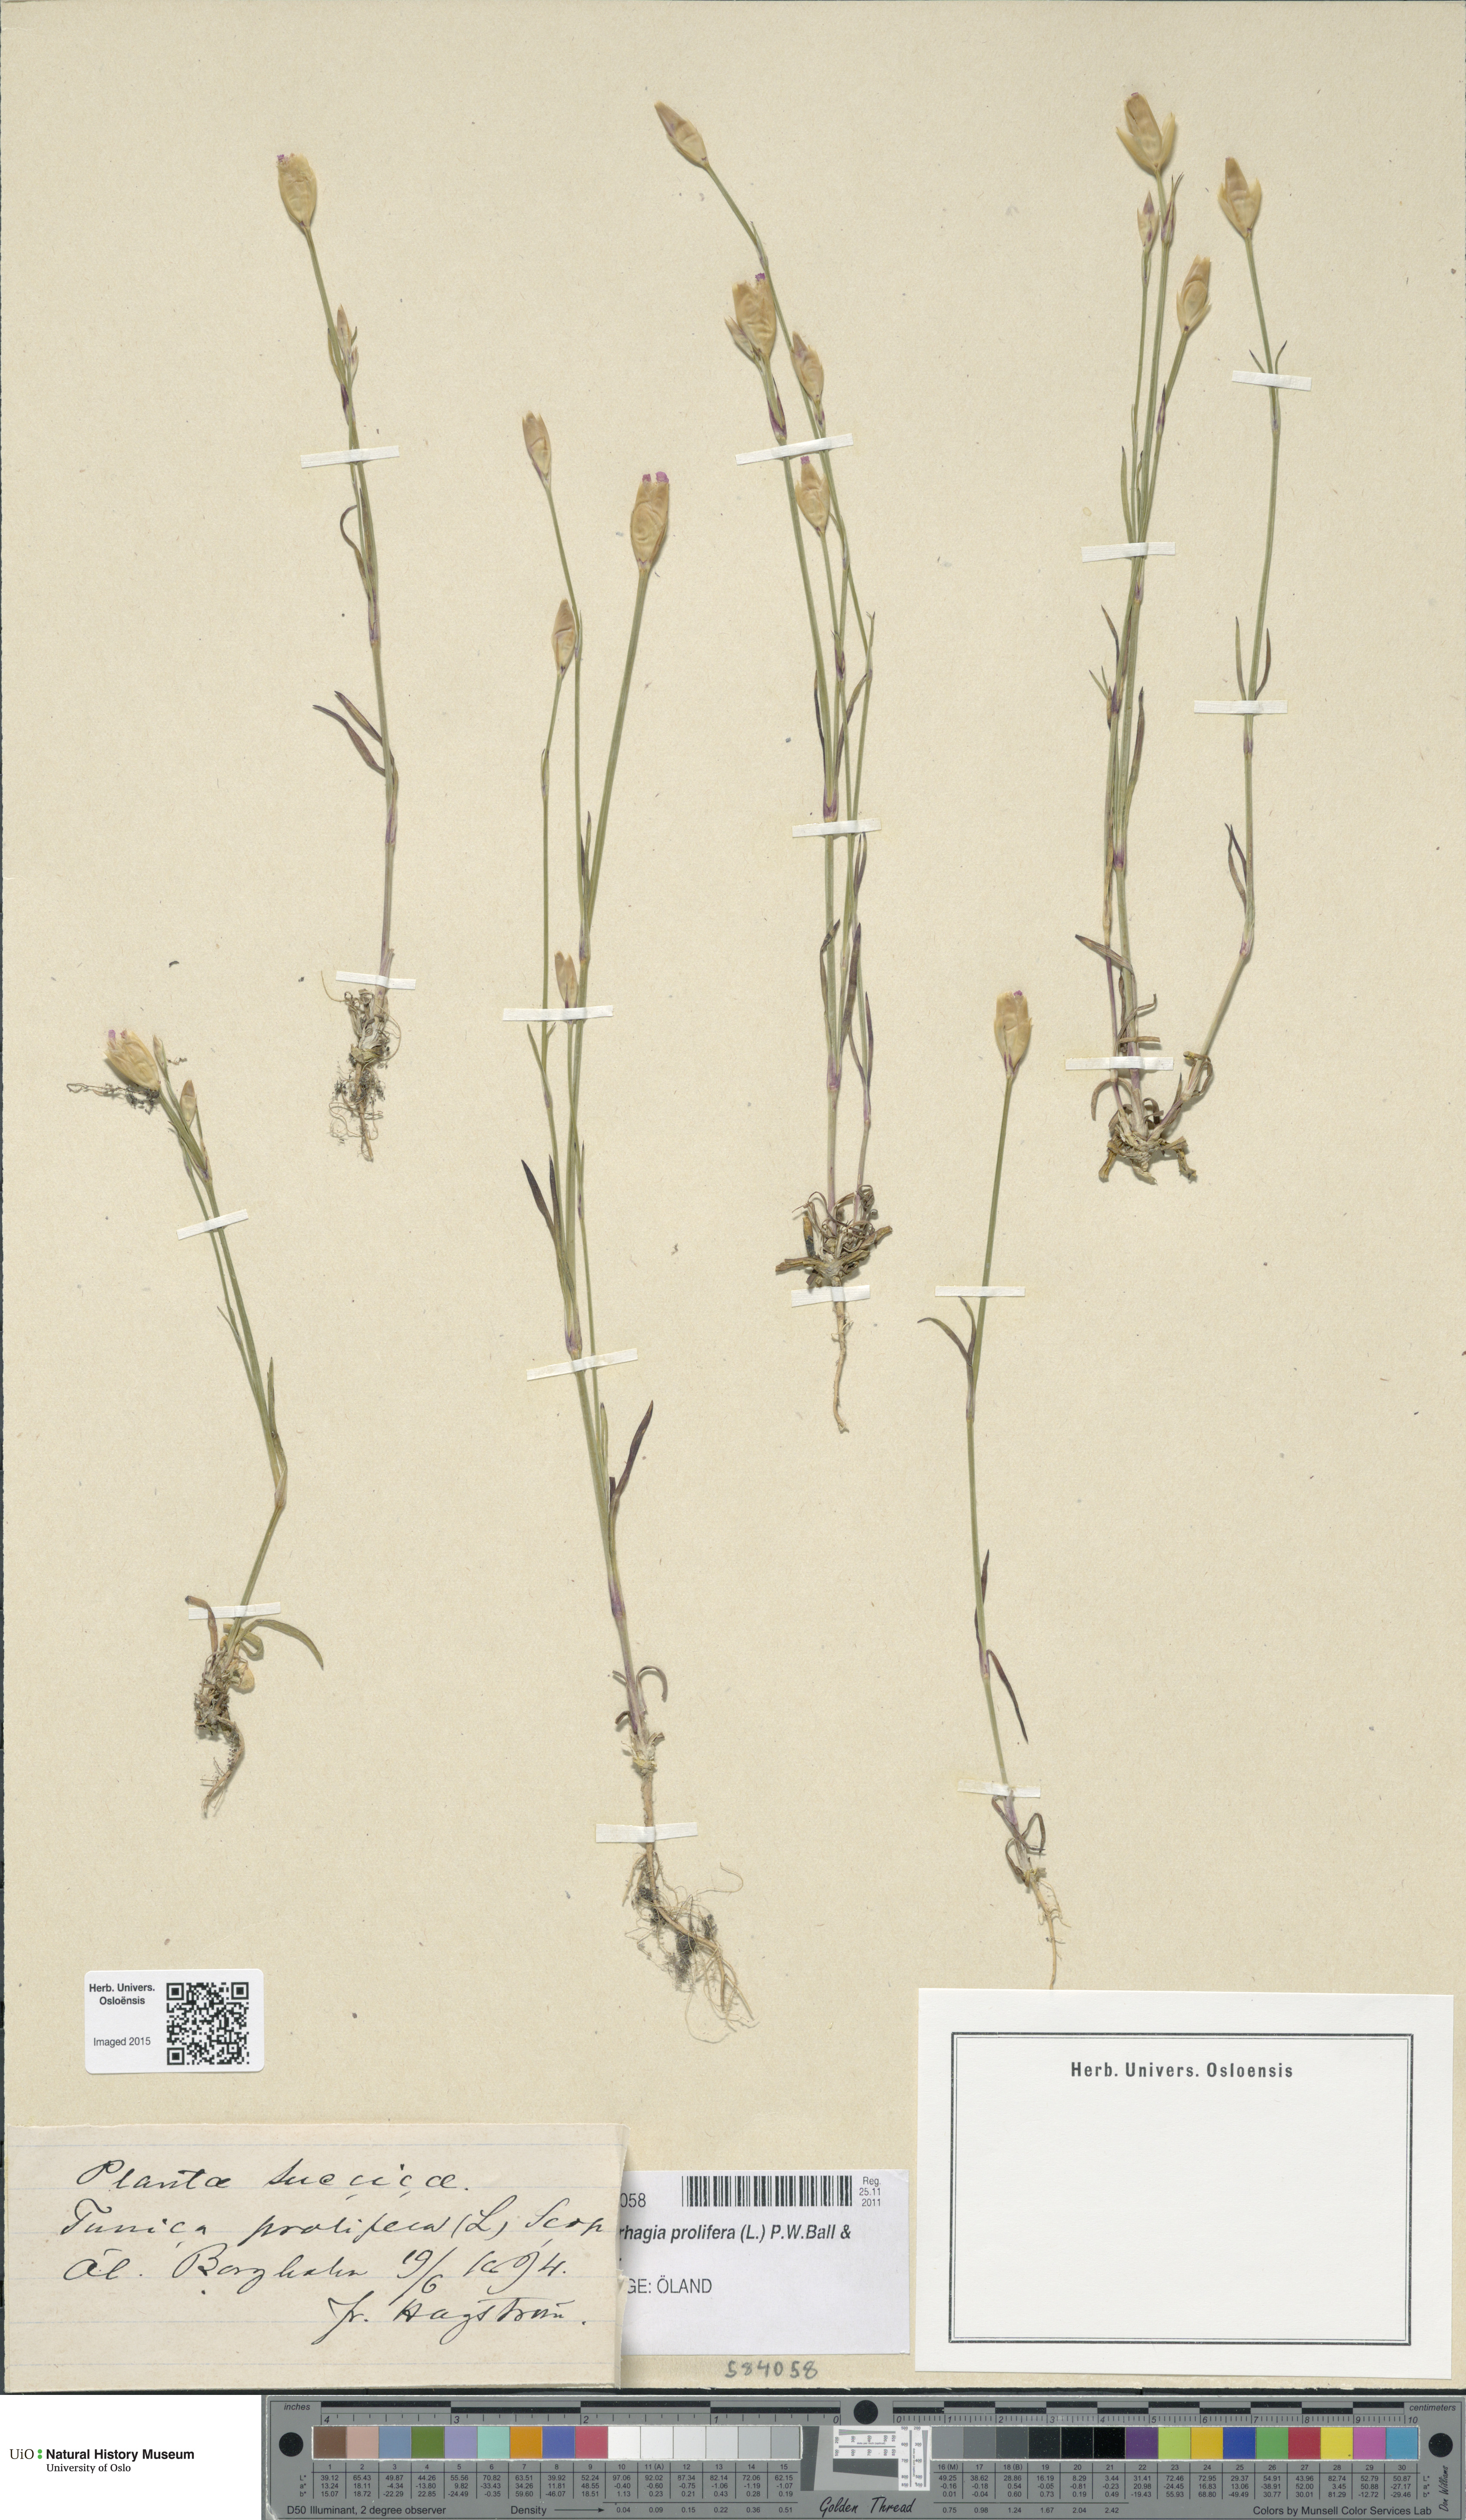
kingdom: Plantae
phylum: Tracheophyta
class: Magnoliopsida
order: Caryophyllales
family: Caryophyllaceae
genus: Petrorhagia
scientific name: Petrorhagia prolifera
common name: Proliferous pink
